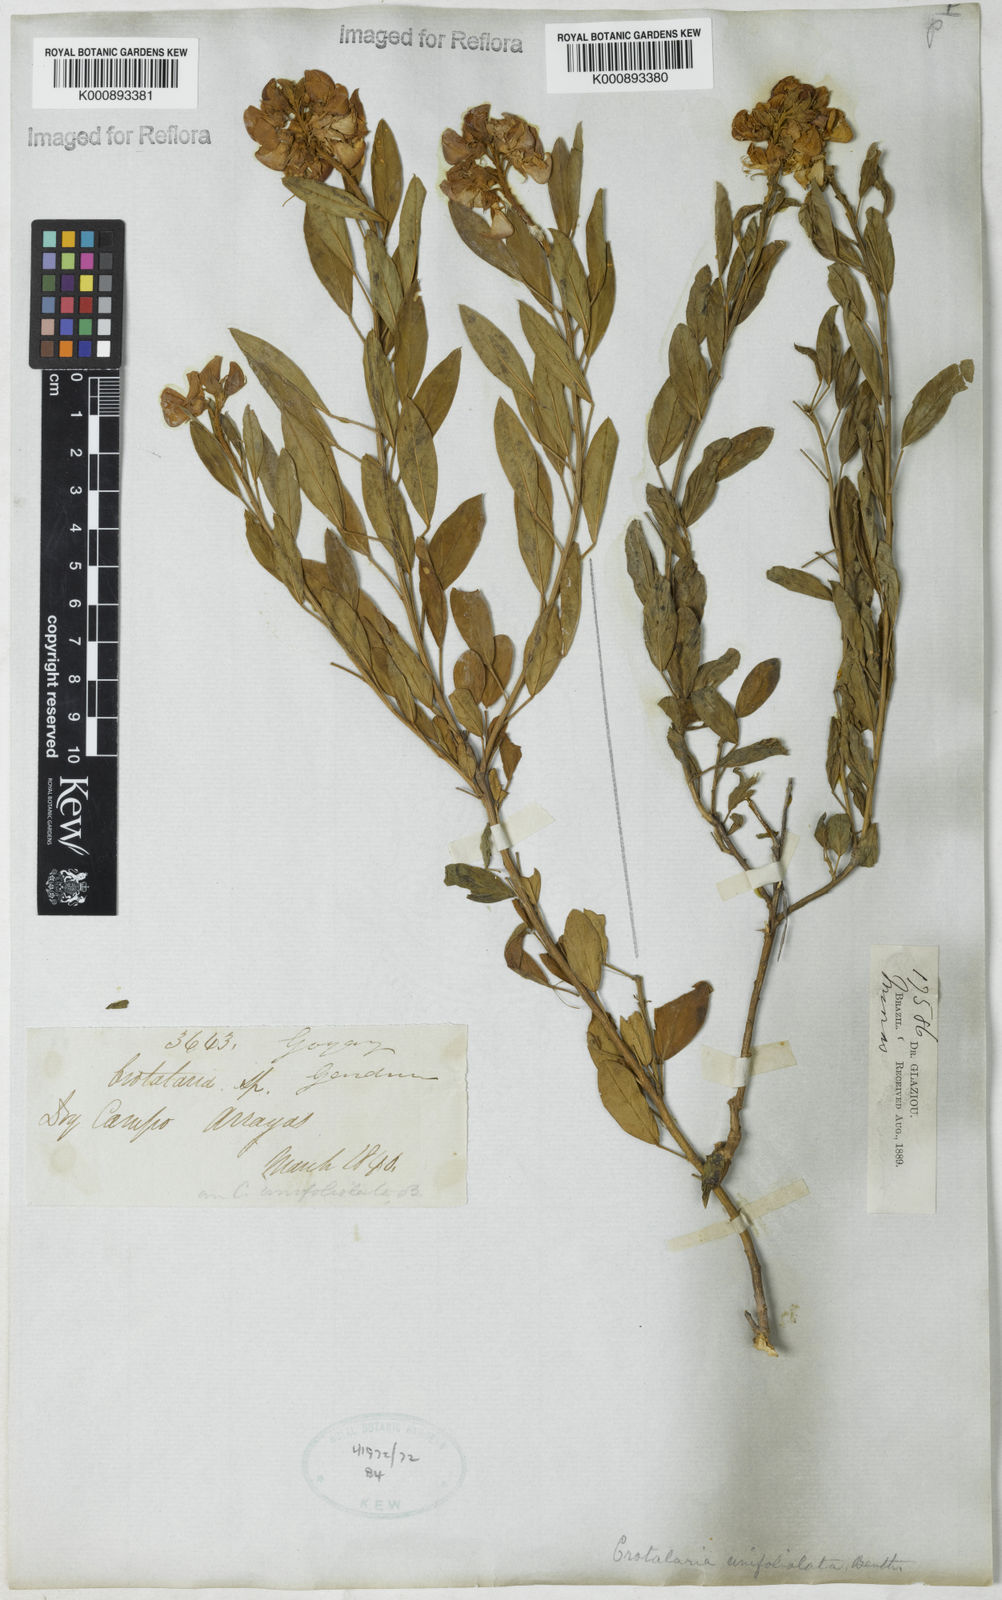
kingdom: Plantae
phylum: Tracheophyta
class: Magnoliopsida
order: Fabales
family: Fabaceae
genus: Crotalaria
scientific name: Crotalaria unifoliolata
